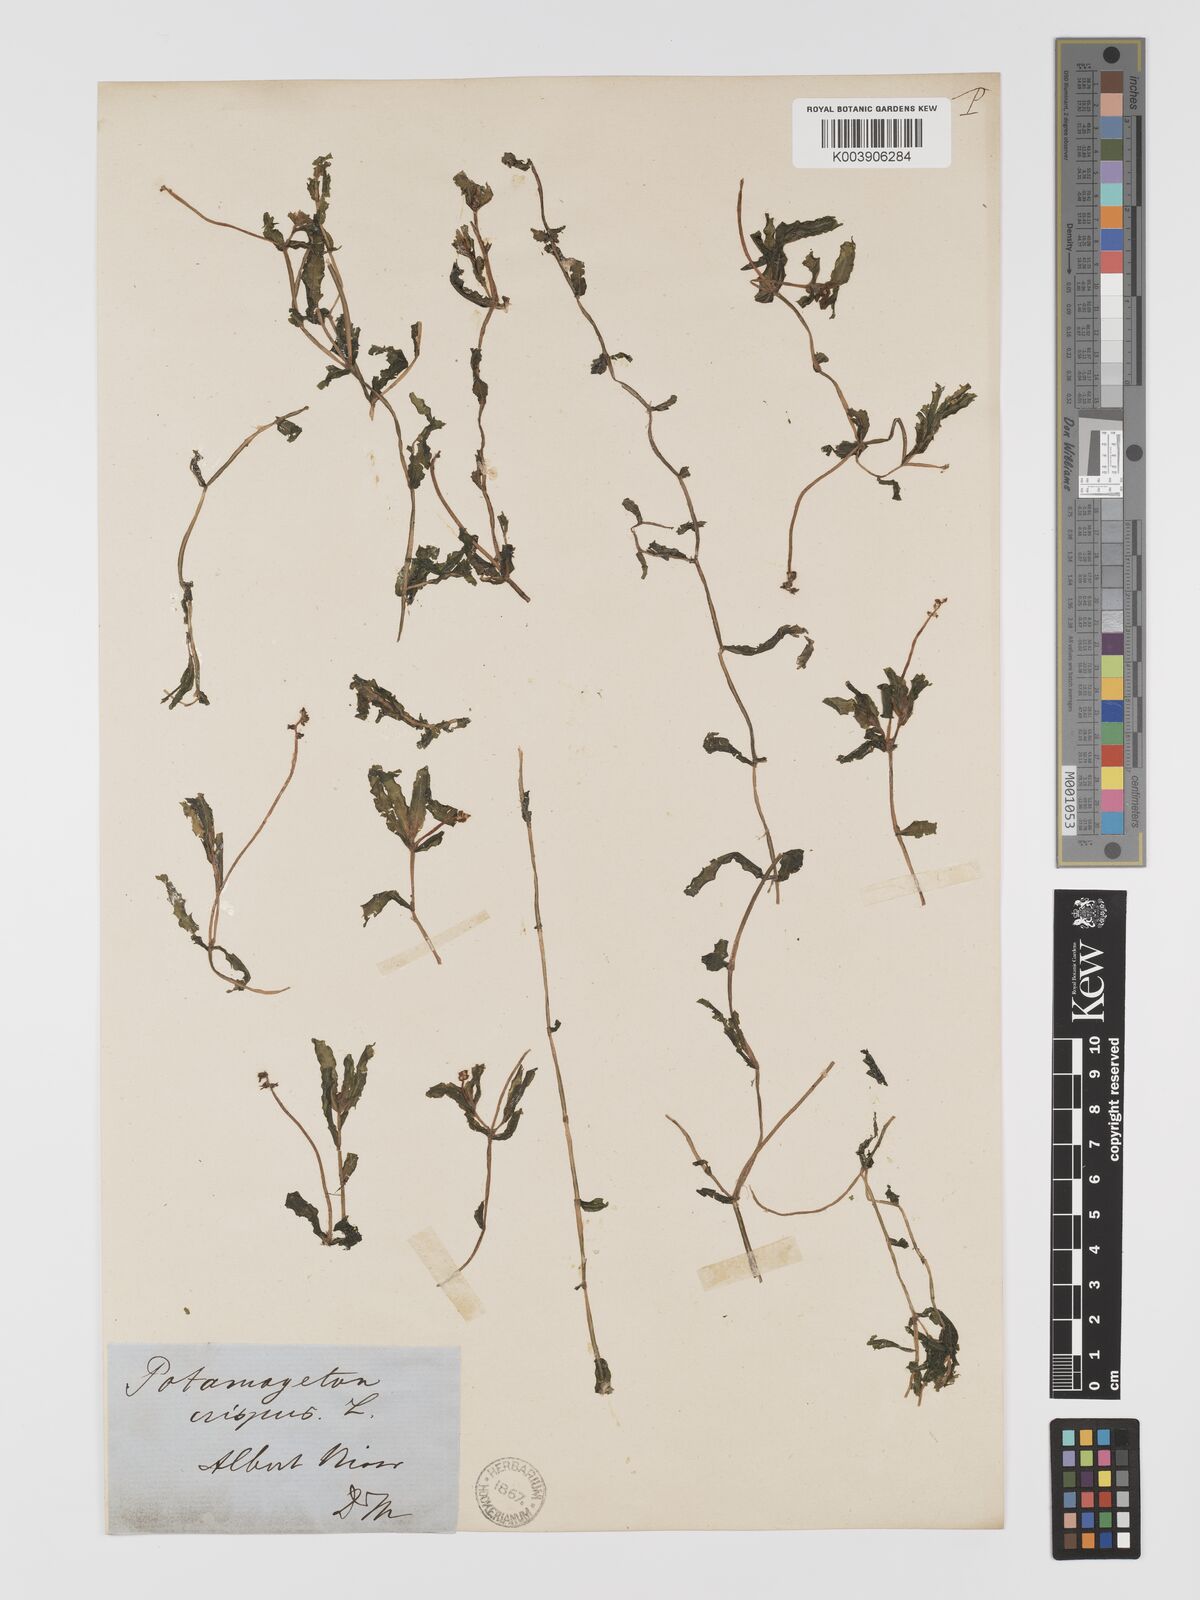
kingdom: Plantae
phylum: Tracheophyta
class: Liliopsida
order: Alismatales
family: Potamogetonaceae
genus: Potamogeton
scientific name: Potamogeton crispus
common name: Curled pondweed
